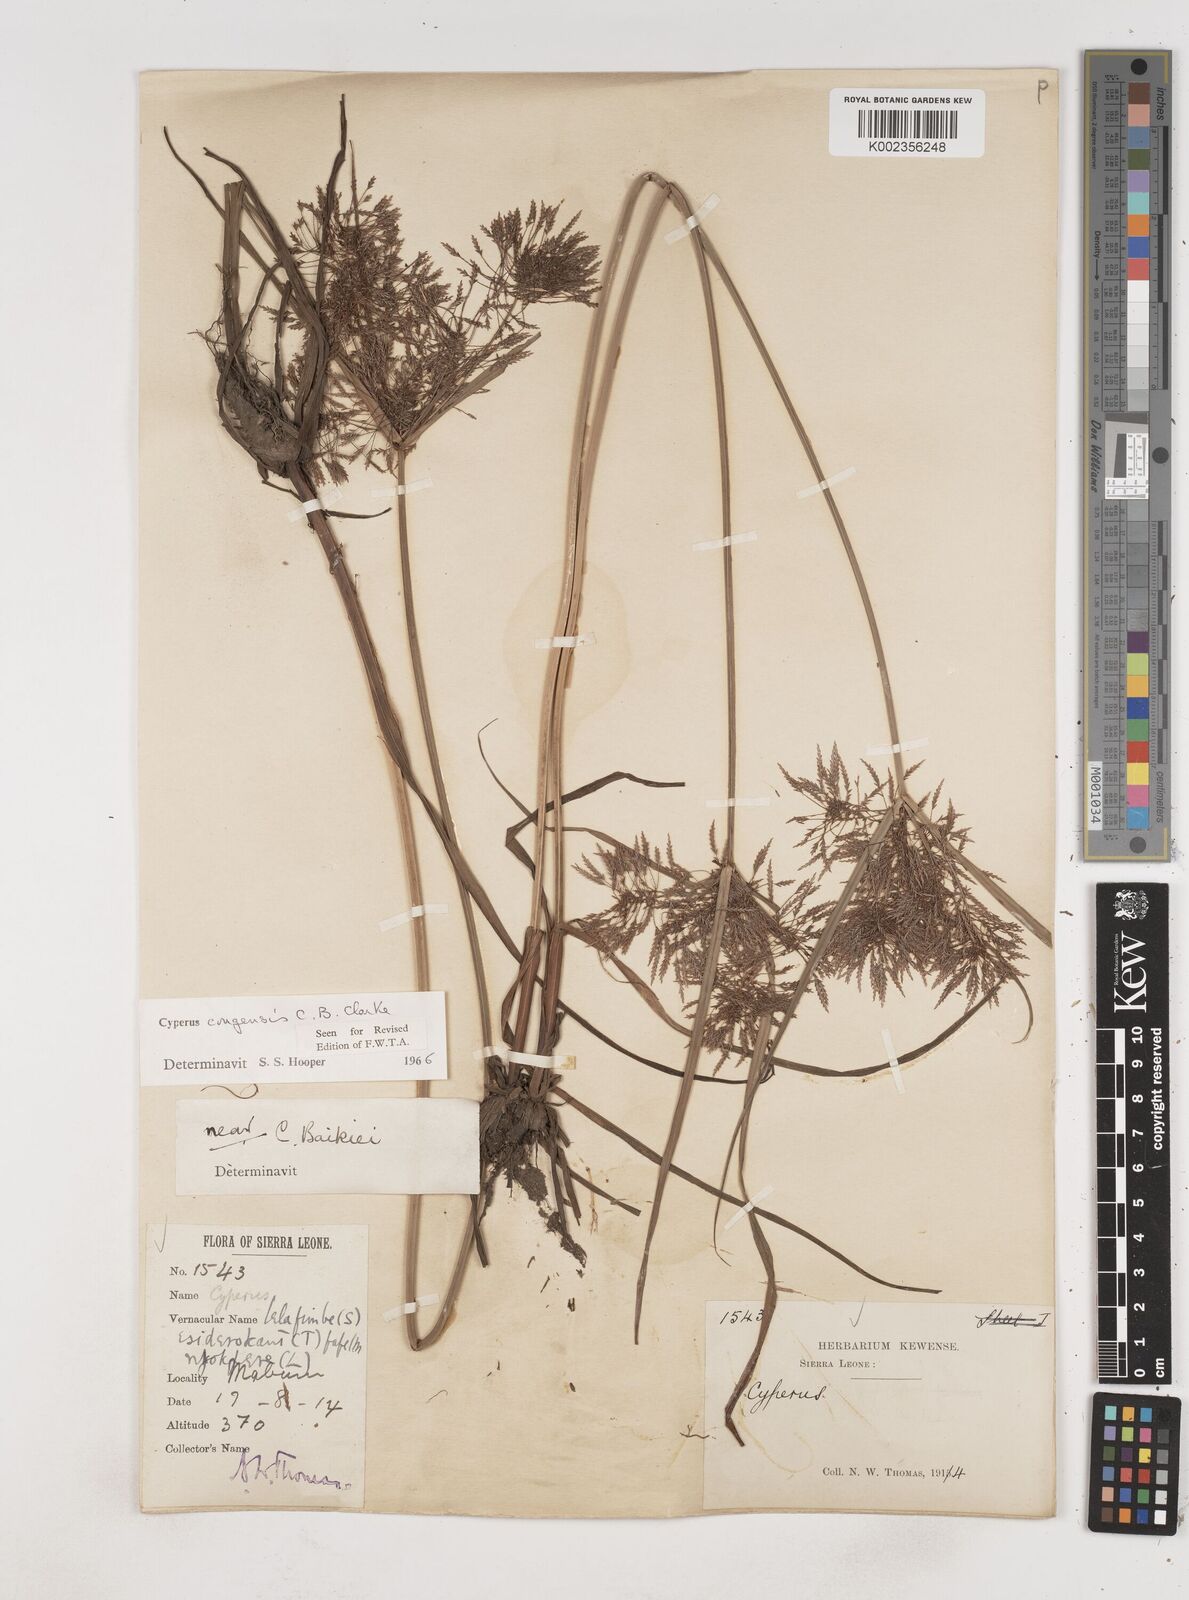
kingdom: Plantae
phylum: Tracheophyta
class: Liliopsida
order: Poales
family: Cyperaceae
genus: Cyperus
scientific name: Cyperus congensis
